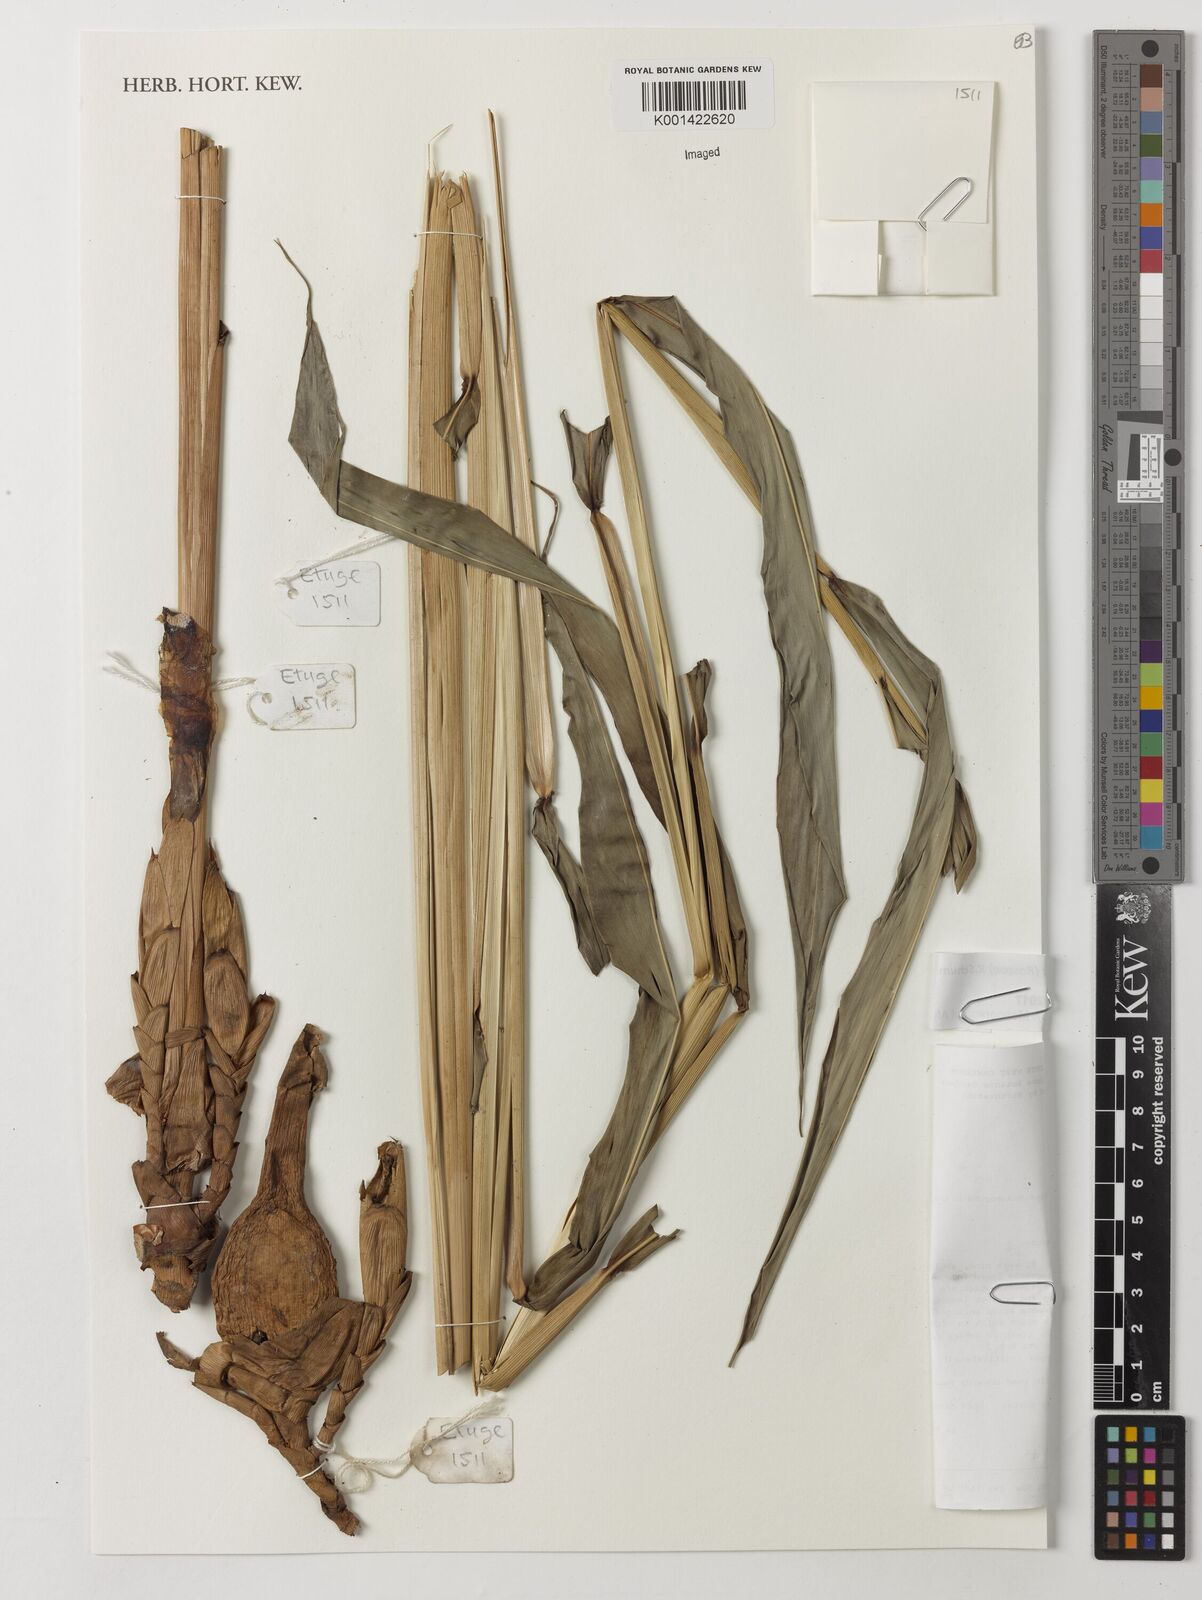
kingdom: Plantae
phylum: Tracheophyta
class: Liliopsida
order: Zingiberales
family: Zingiberaceae
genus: Aframomum
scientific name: Aframomum melegueta
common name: Grains of paradise
